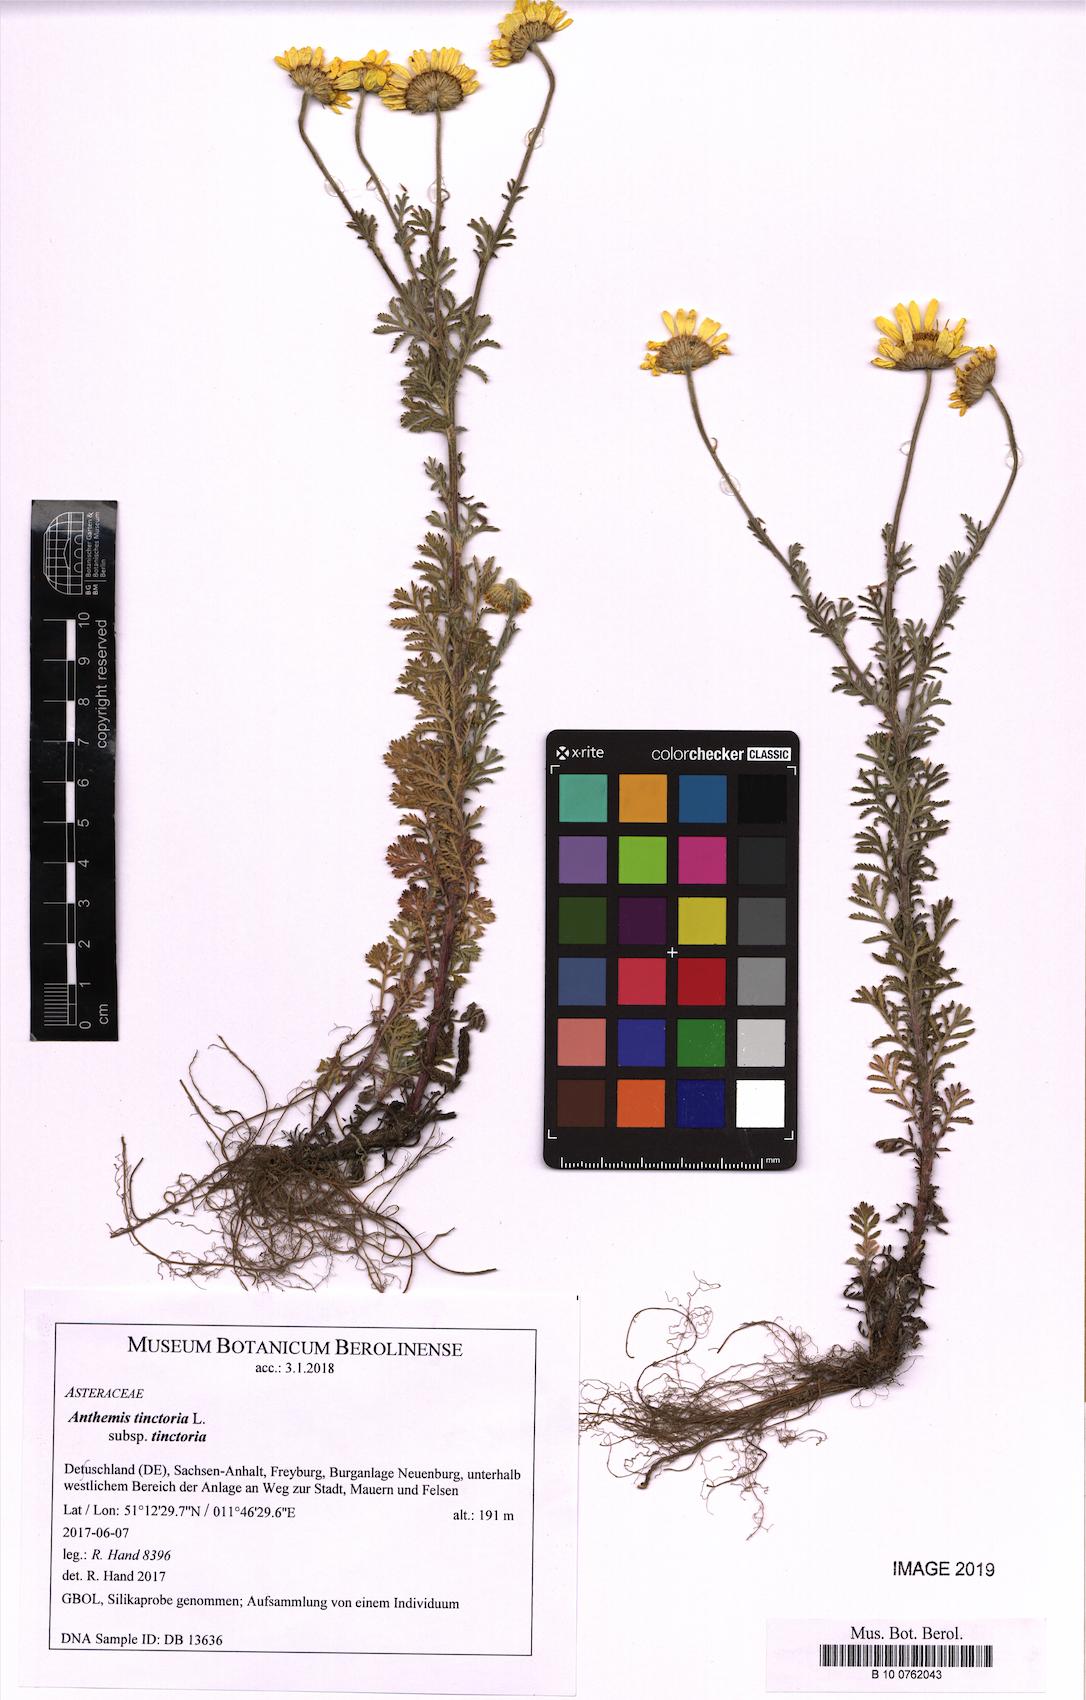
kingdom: Plantae
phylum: Tracheophyta
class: Magnoliopsida
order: Asterales
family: Asteraceae
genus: Cota
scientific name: Cota tinctoria
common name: Golden chamomile
